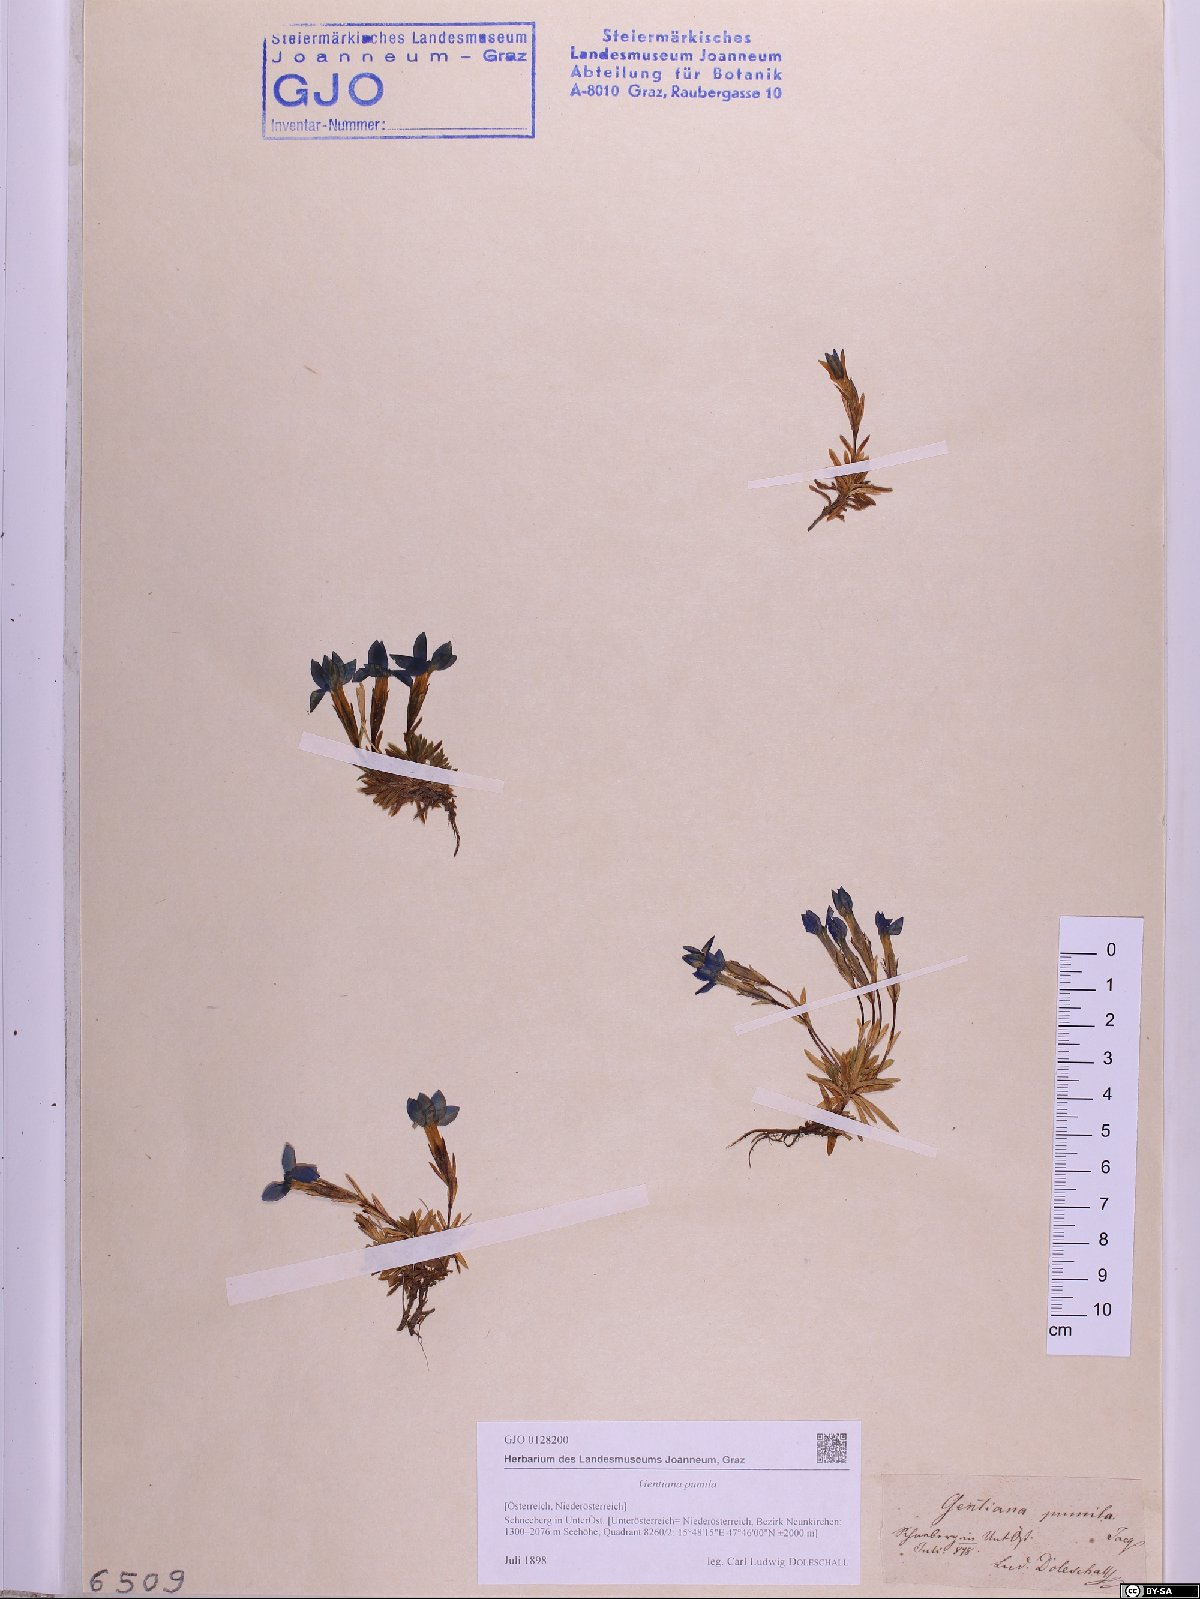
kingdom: Plantae
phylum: Tracheophyta
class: Magnoliopsida
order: Gentianales
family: Gentianaceae
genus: Gentiana
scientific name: Gentiana pumila
